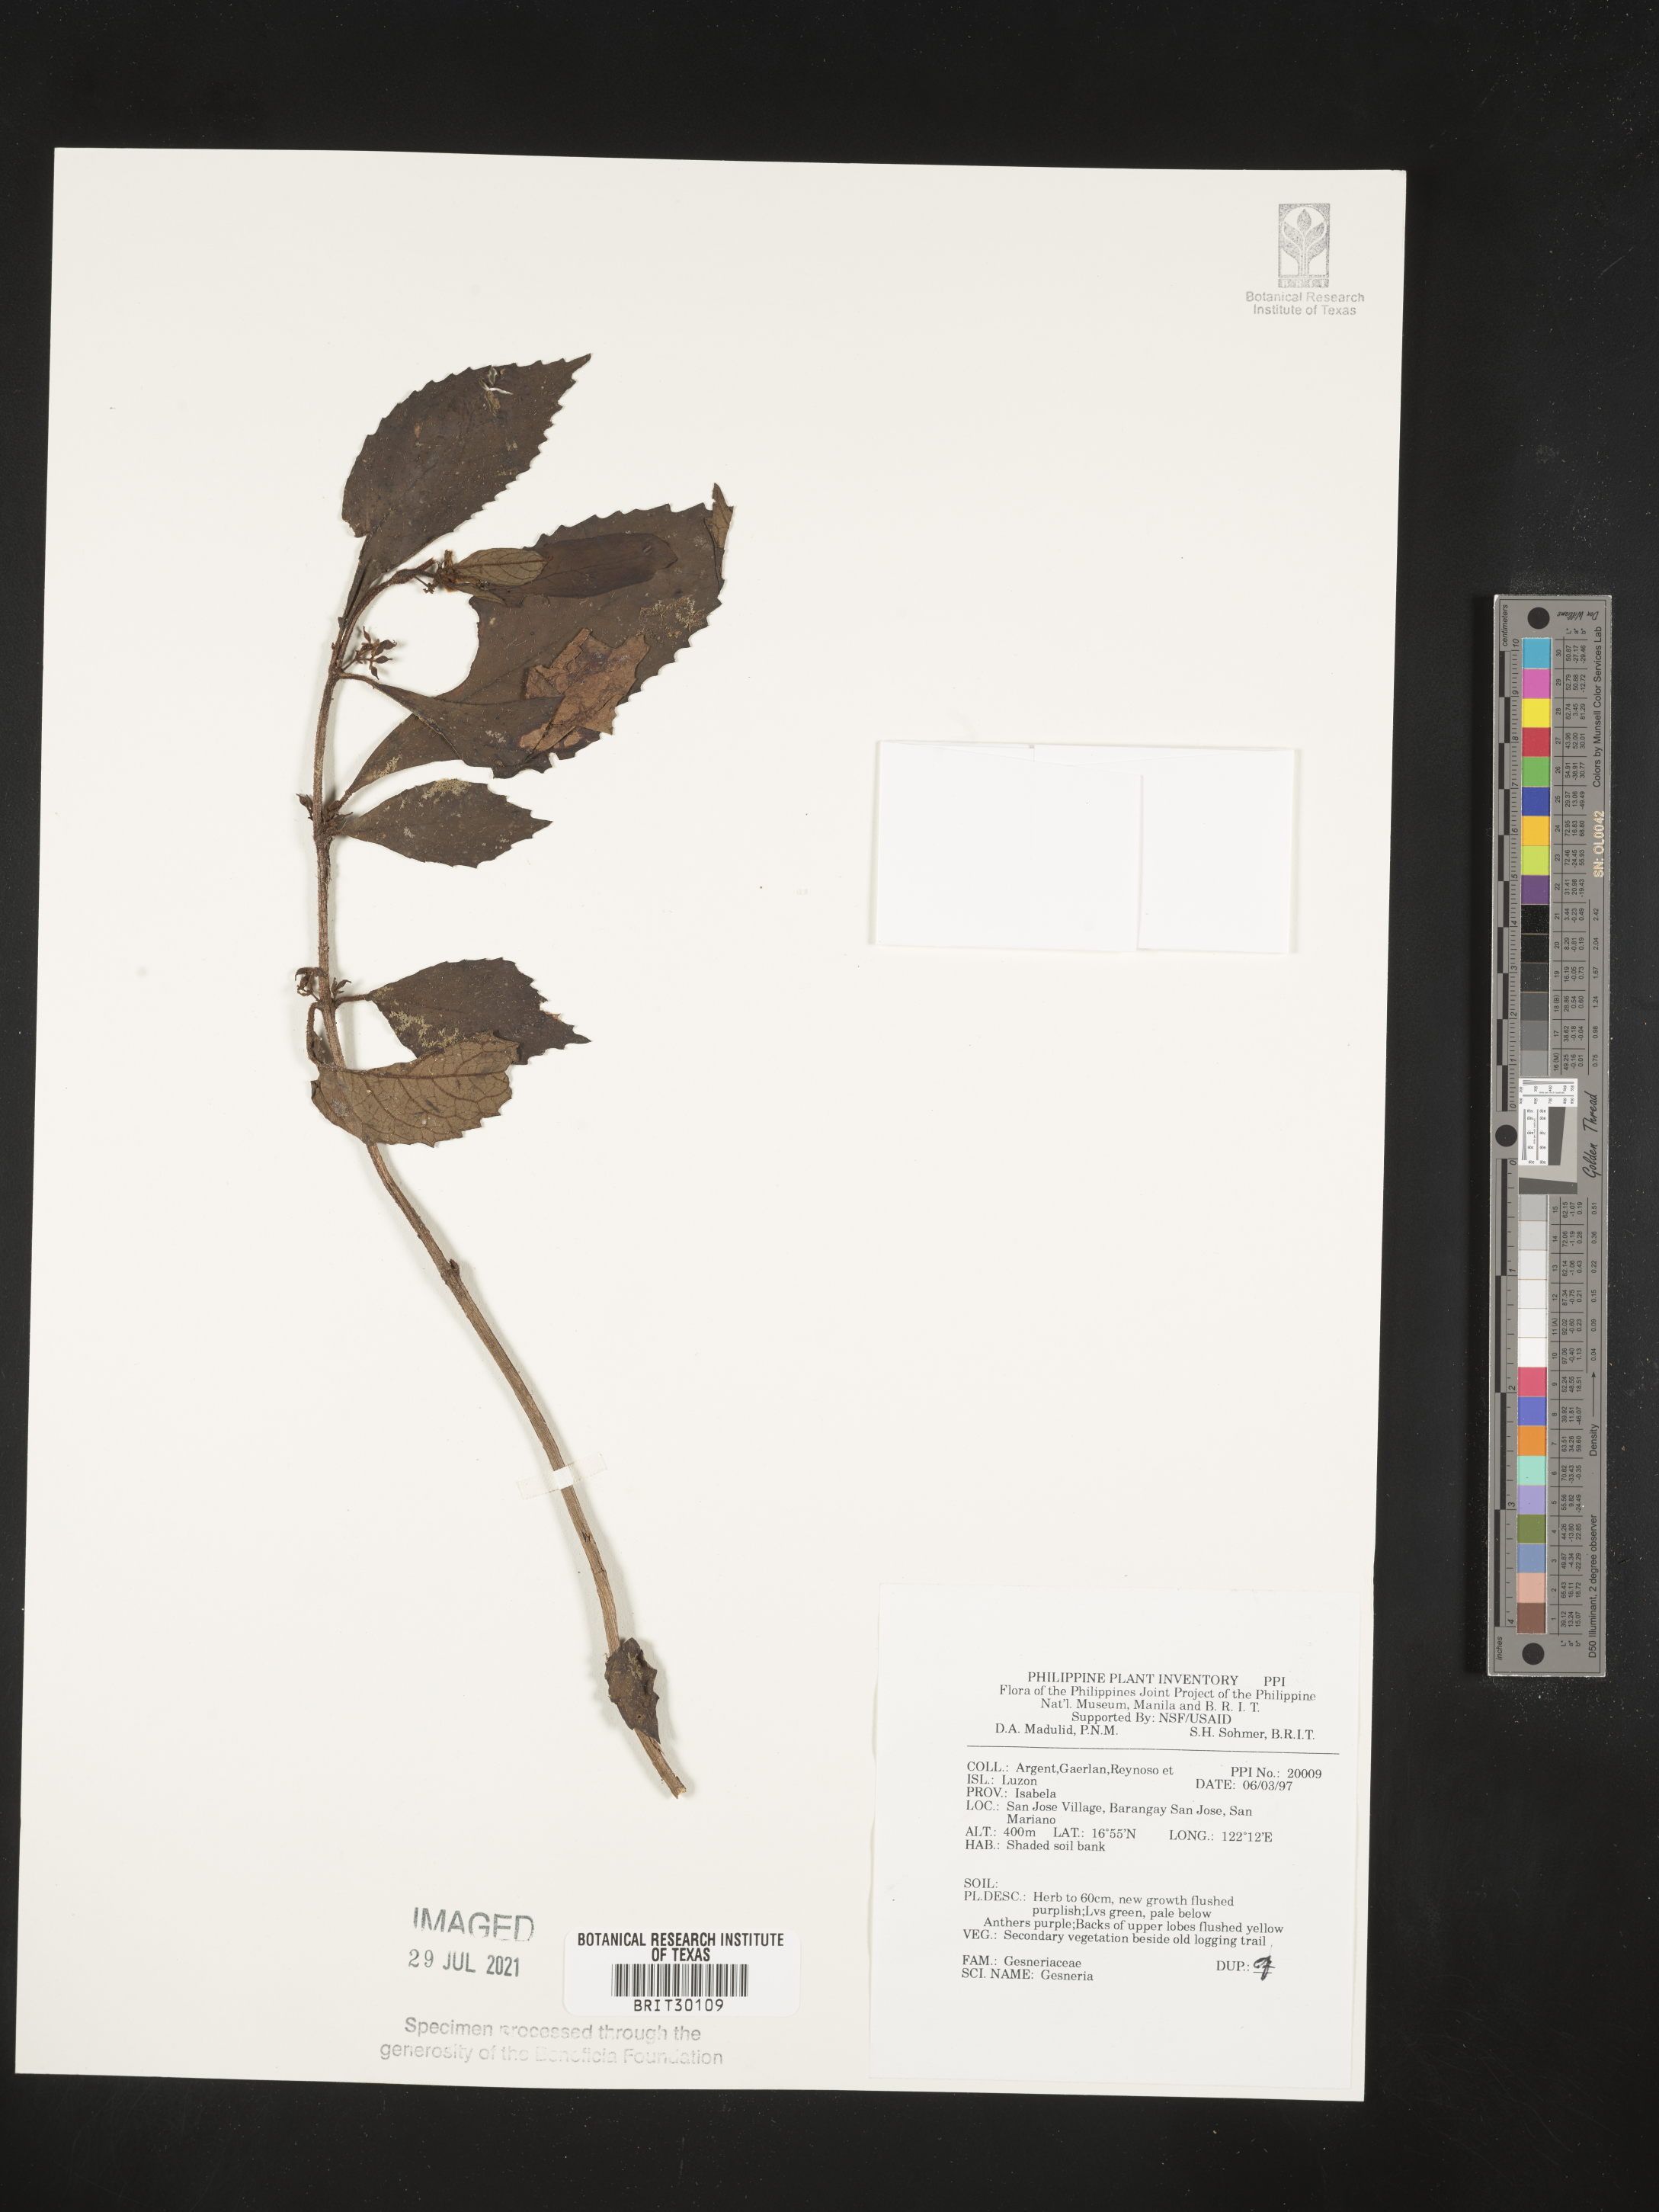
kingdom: Plantae
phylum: Tracheophyta
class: Magnoliopsida
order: Lamiales
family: Gesneriaceae
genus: Gesneria
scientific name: Gesneria
